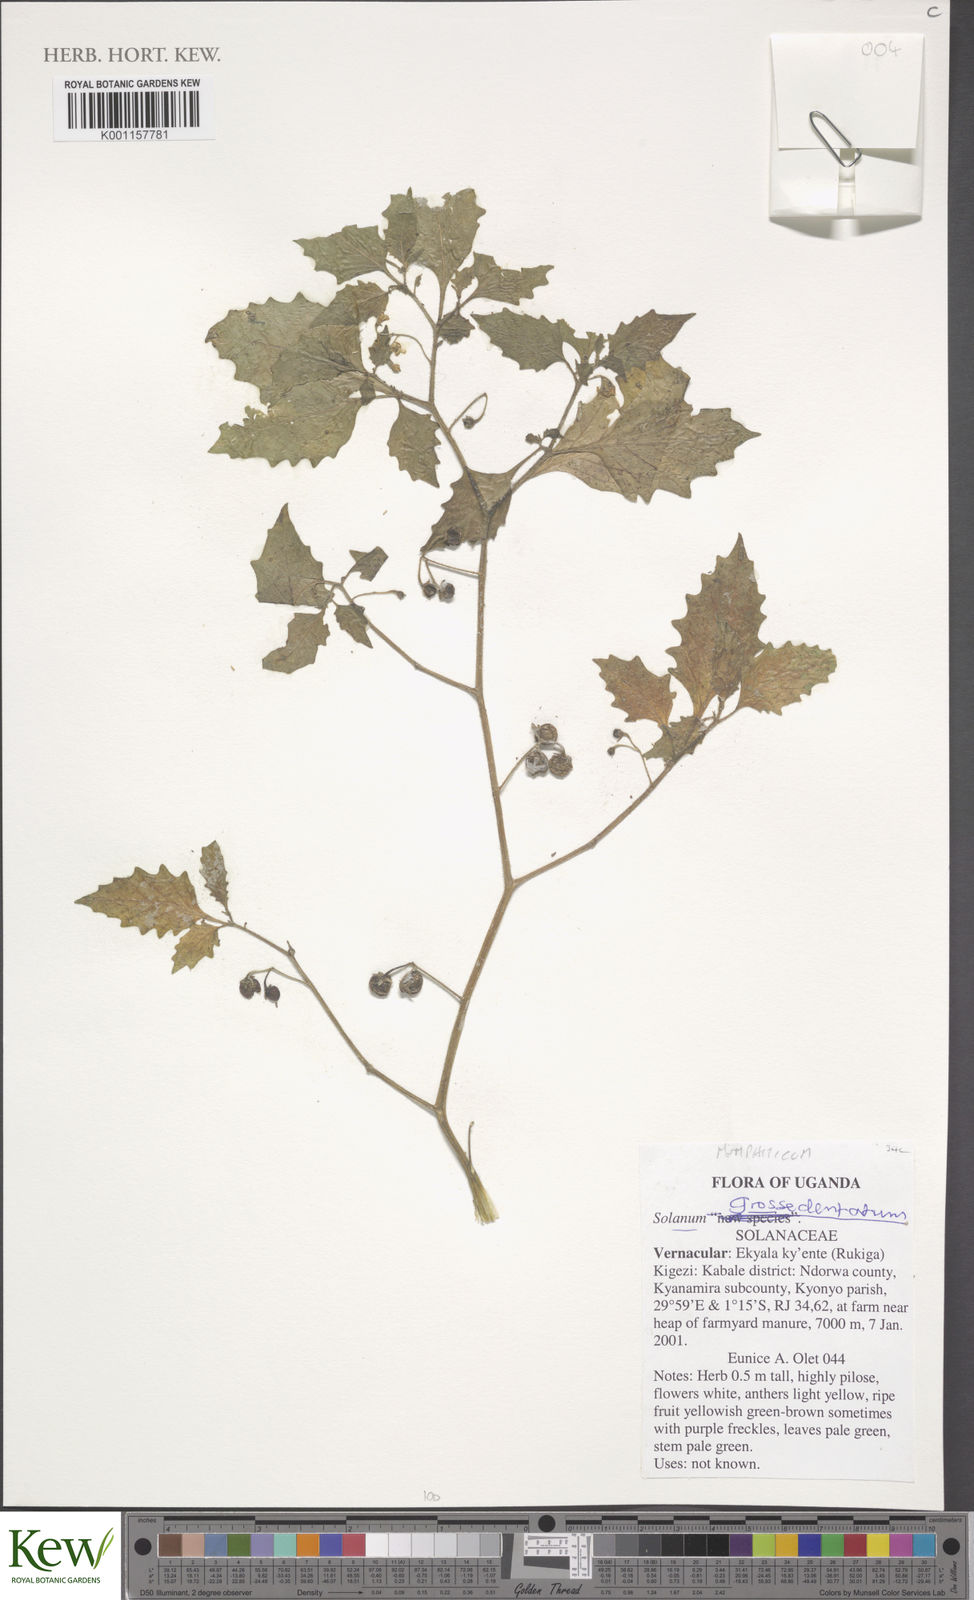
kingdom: Plantae
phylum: Tracheophyta
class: Magnoliopsida
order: Solanales
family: Solanaceae
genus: Solanum
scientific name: Solanum memphiticum
